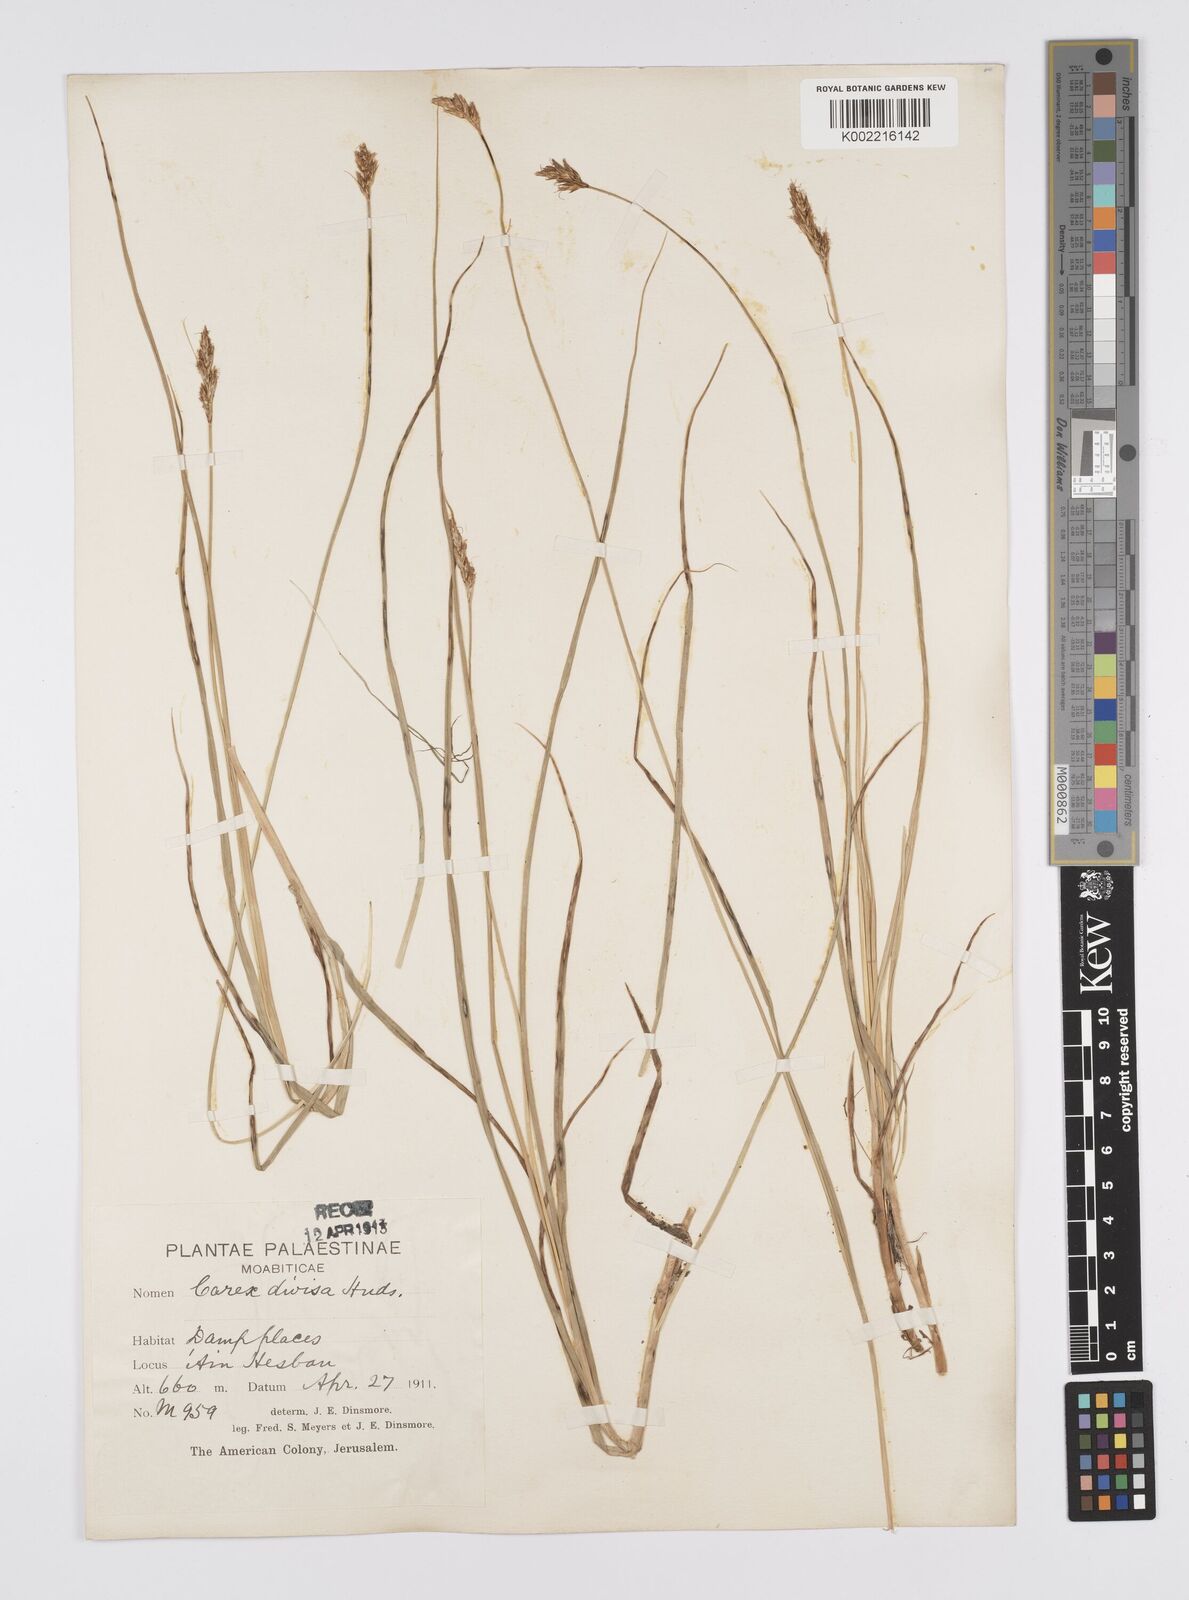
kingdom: Plantae
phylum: Tracheophyta
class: Liliopsida
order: Poales
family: Cyperaceae
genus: Carex
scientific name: Carex divisa
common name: Divided sedge
